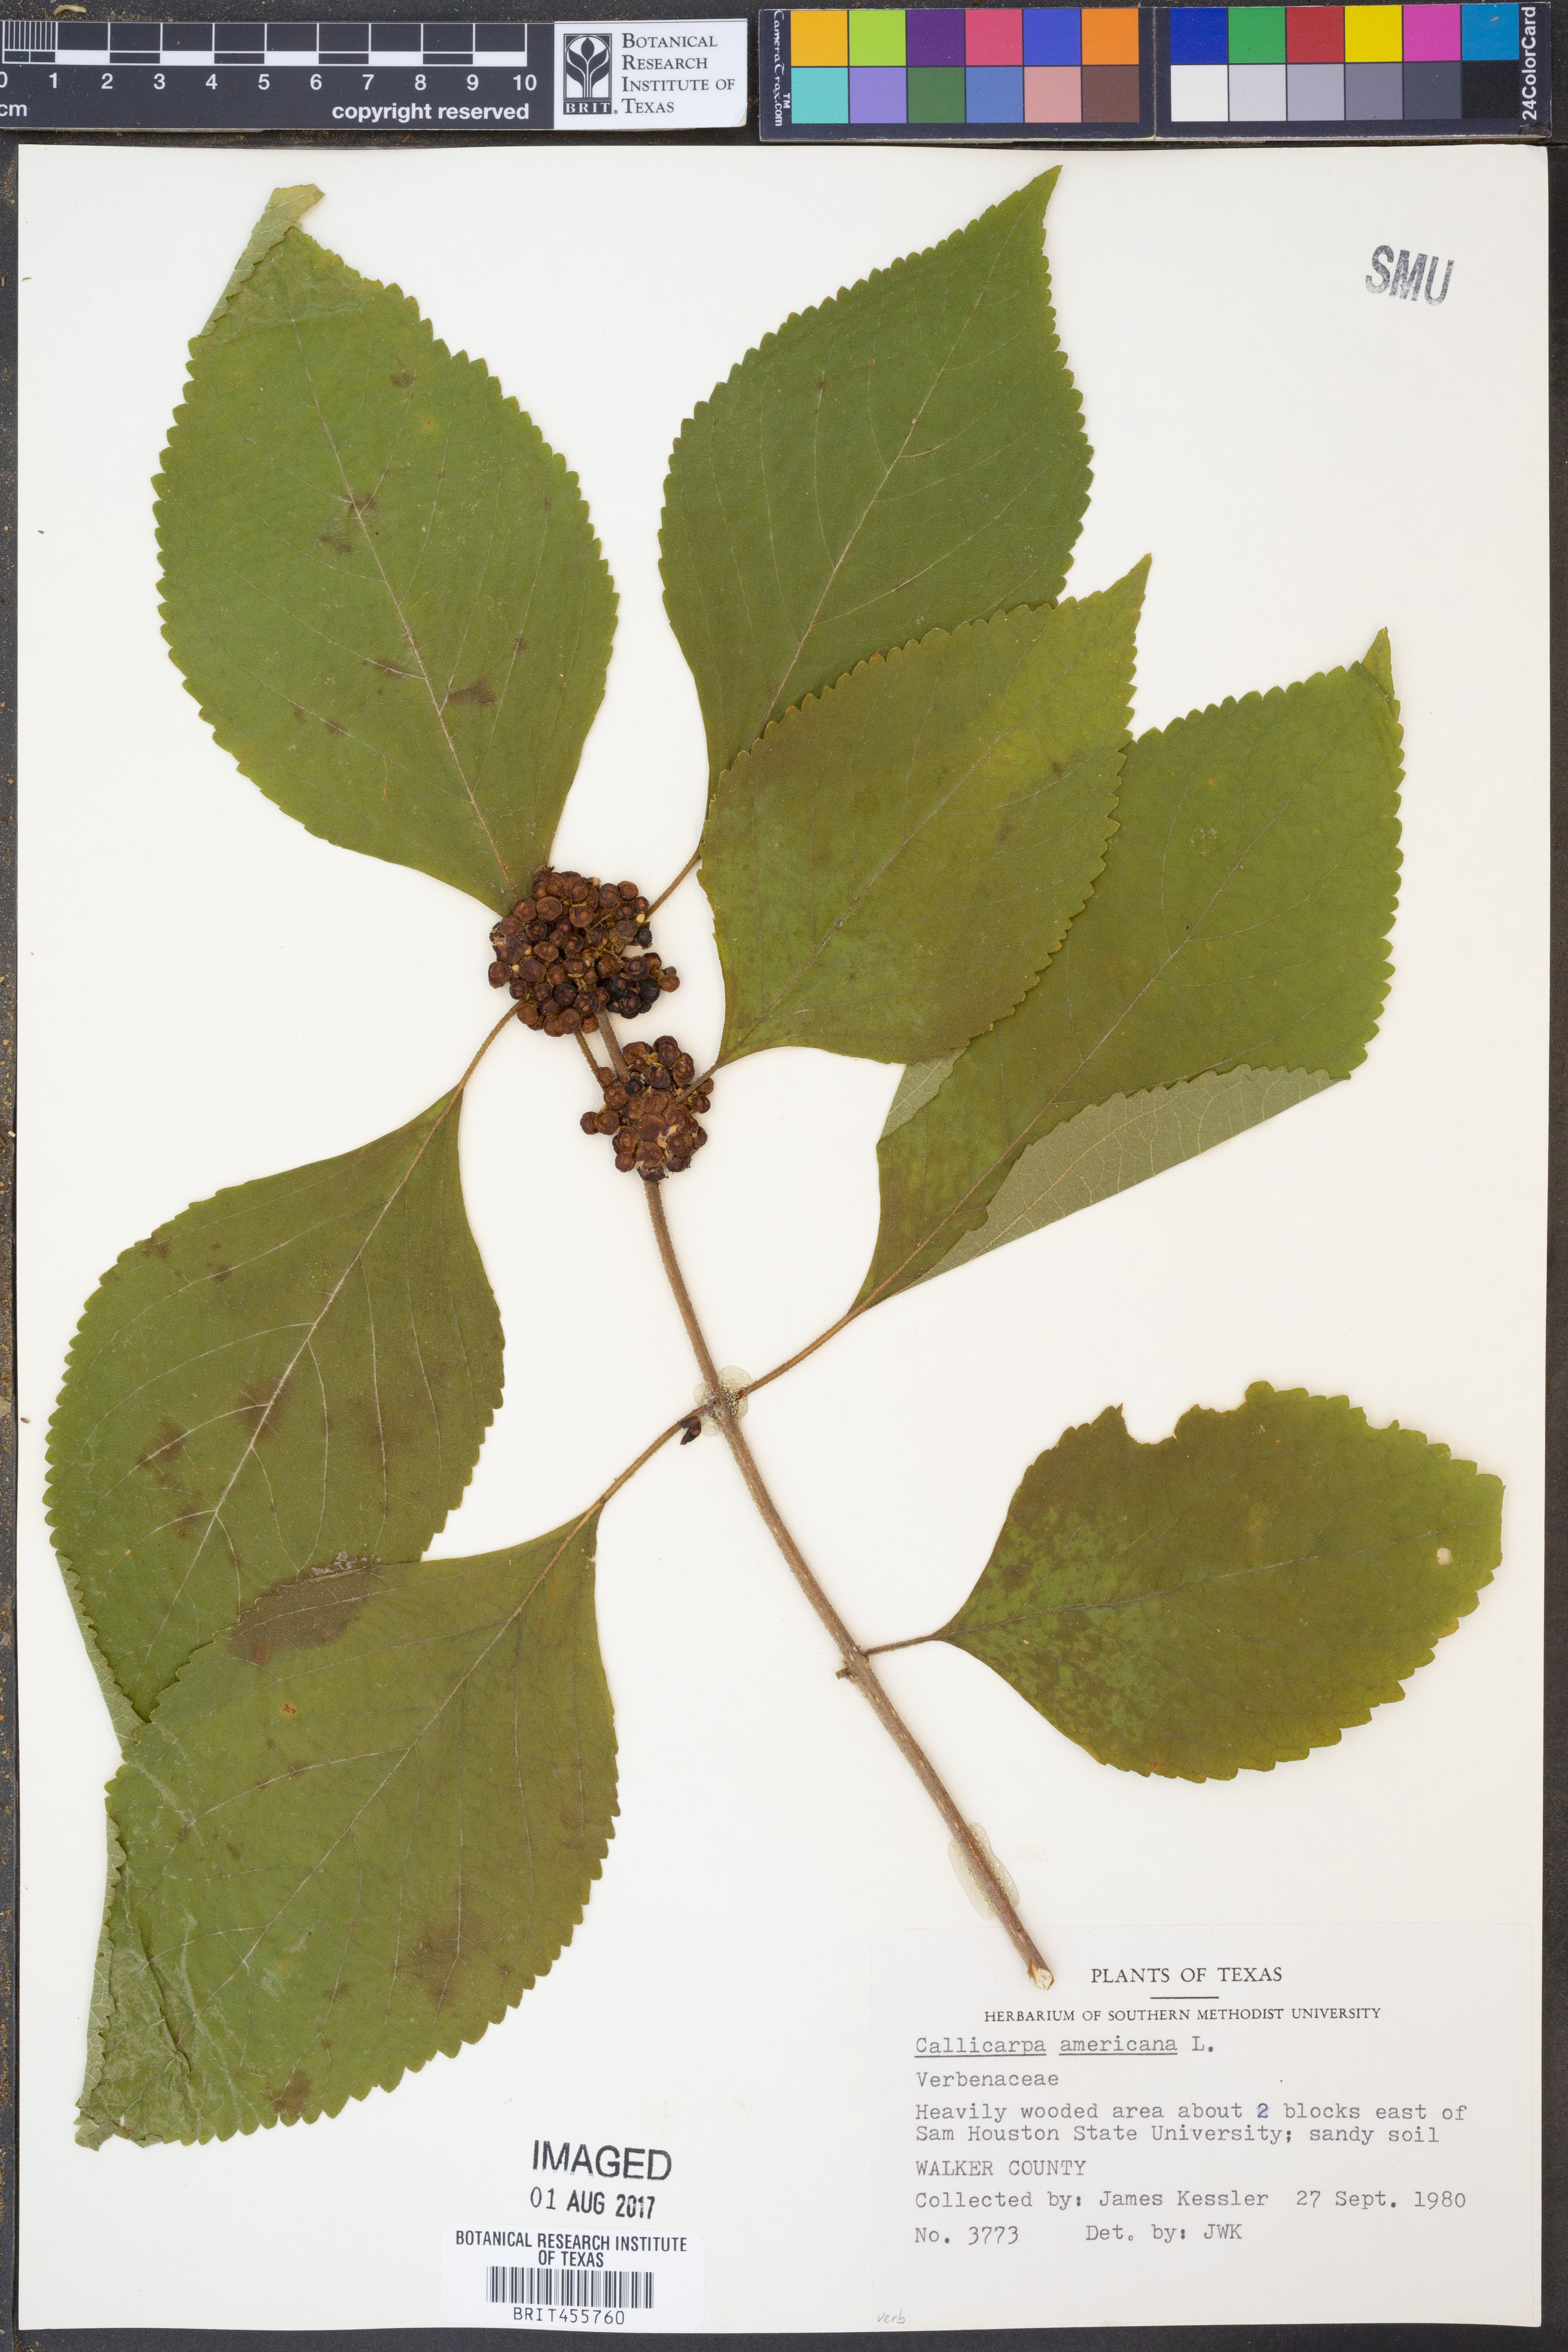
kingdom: Plantae
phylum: Tracheophyta
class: Magnoliopsida
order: Lamiales
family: Lamiaceae
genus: Callicarpa
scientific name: Callicarpa americana
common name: American beautyberry
